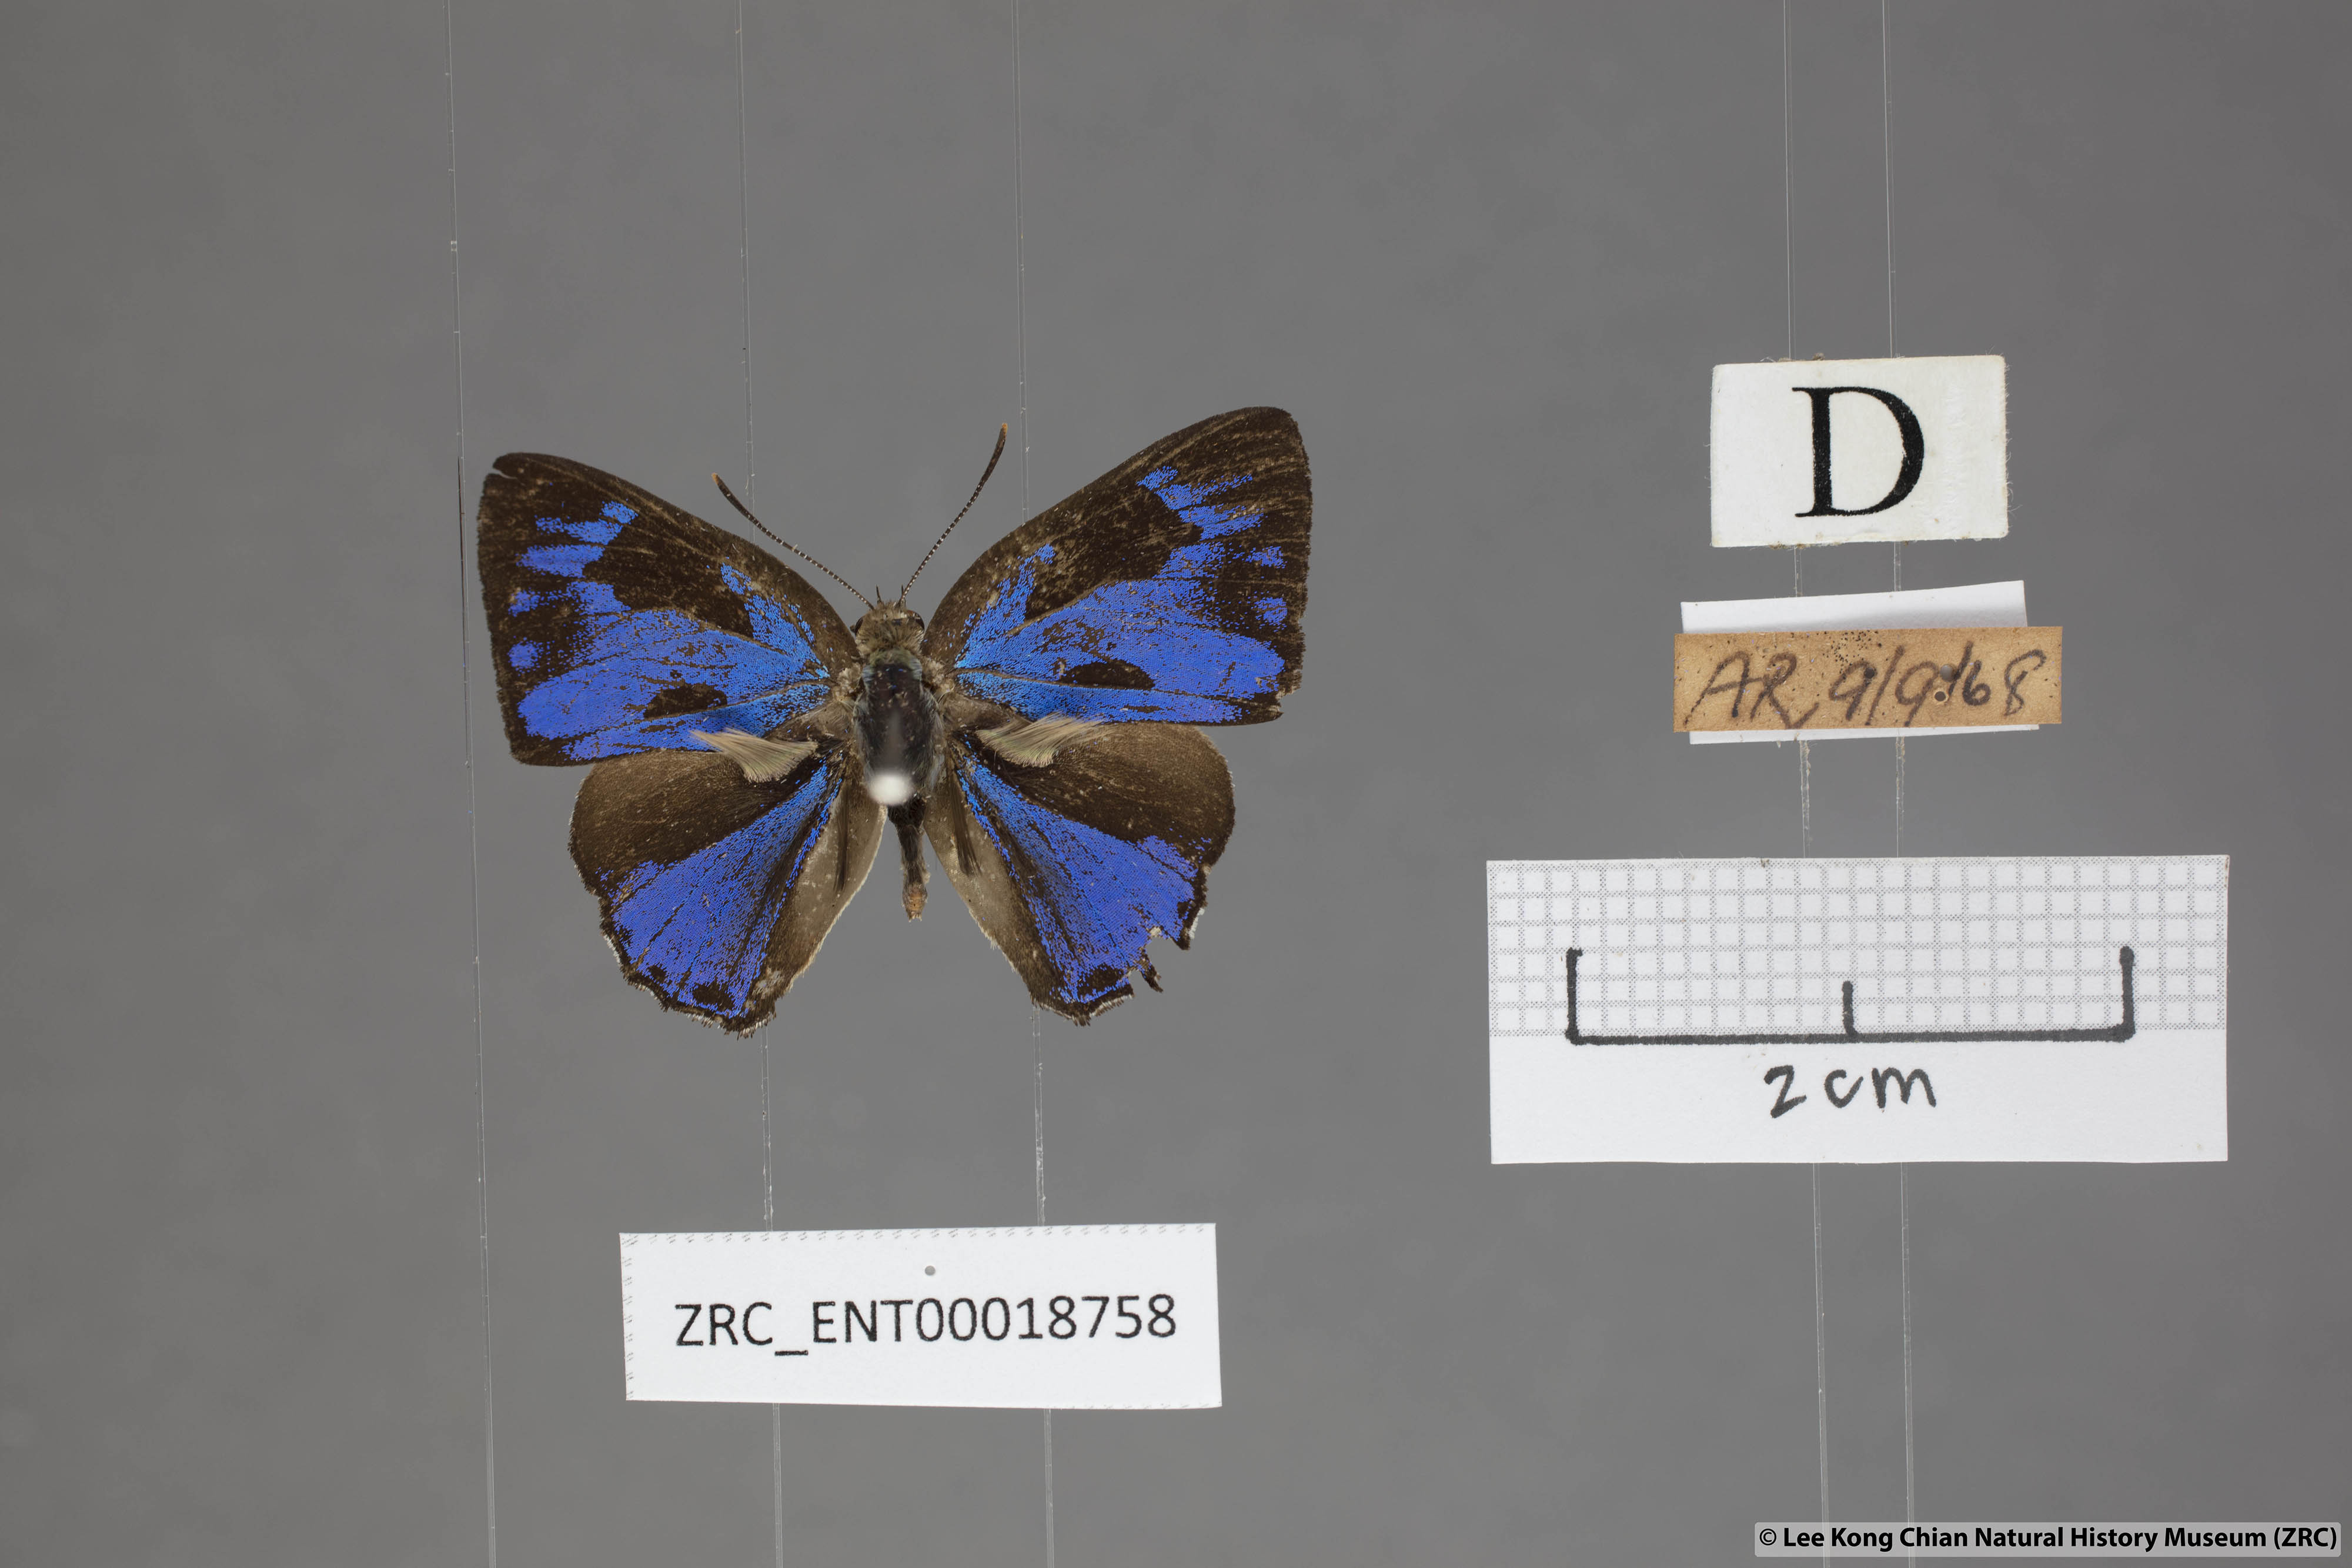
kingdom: Animalia
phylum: Arthropoda
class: Insecta
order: Lepidoptera
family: Lycaenidae
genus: Poritia
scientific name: Poritia erycinoides
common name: Blue gem
